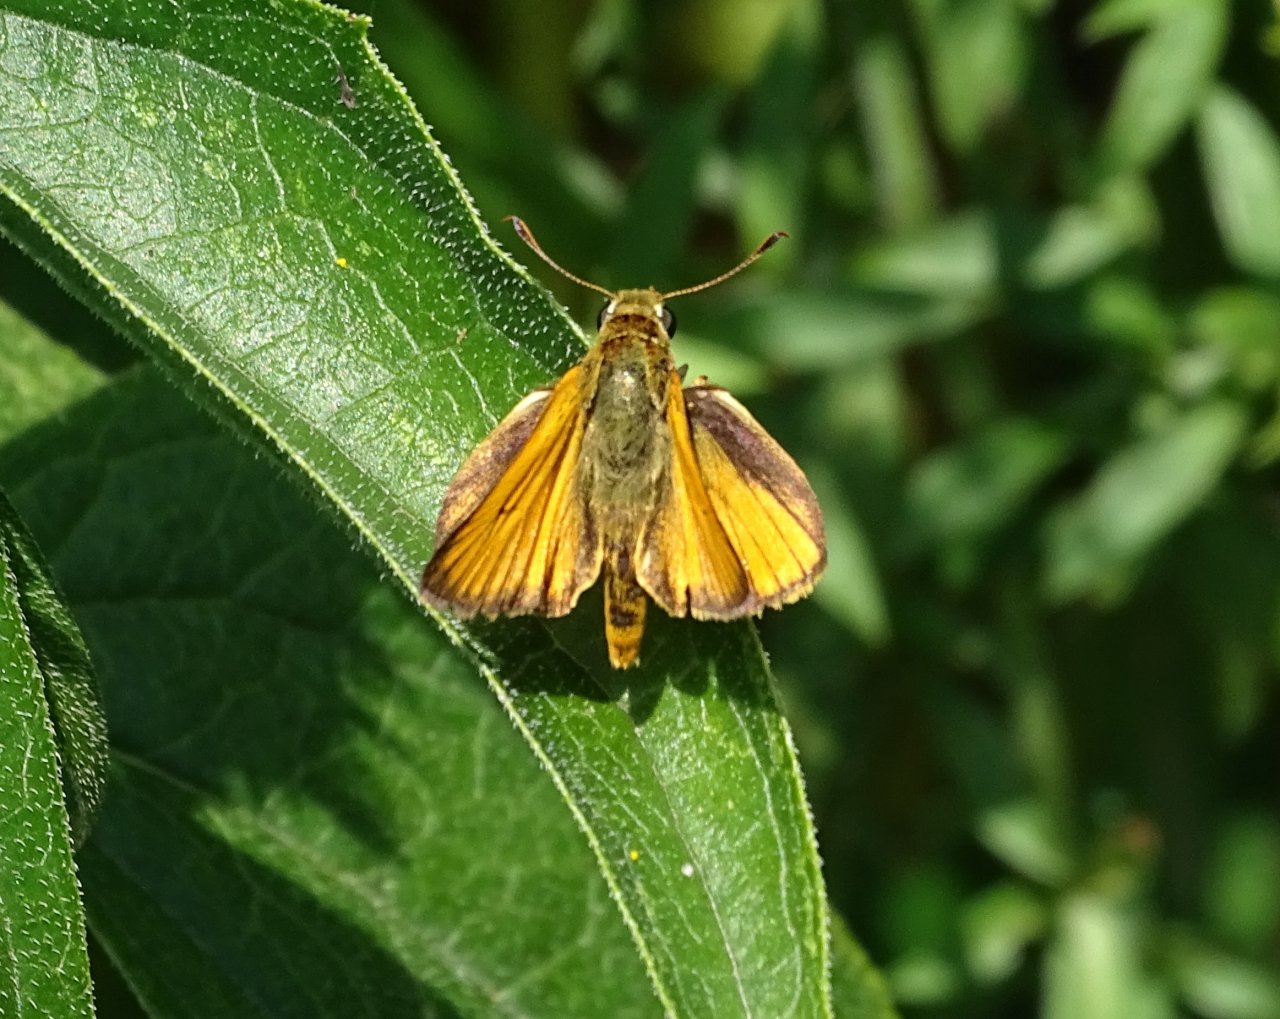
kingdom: Animalia
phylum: Arthropoda
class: Insecta
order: Lepidoptera
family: Hesperiidae
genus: Atrytone
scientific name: Atrytone delaware
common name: Delaware Skipper
